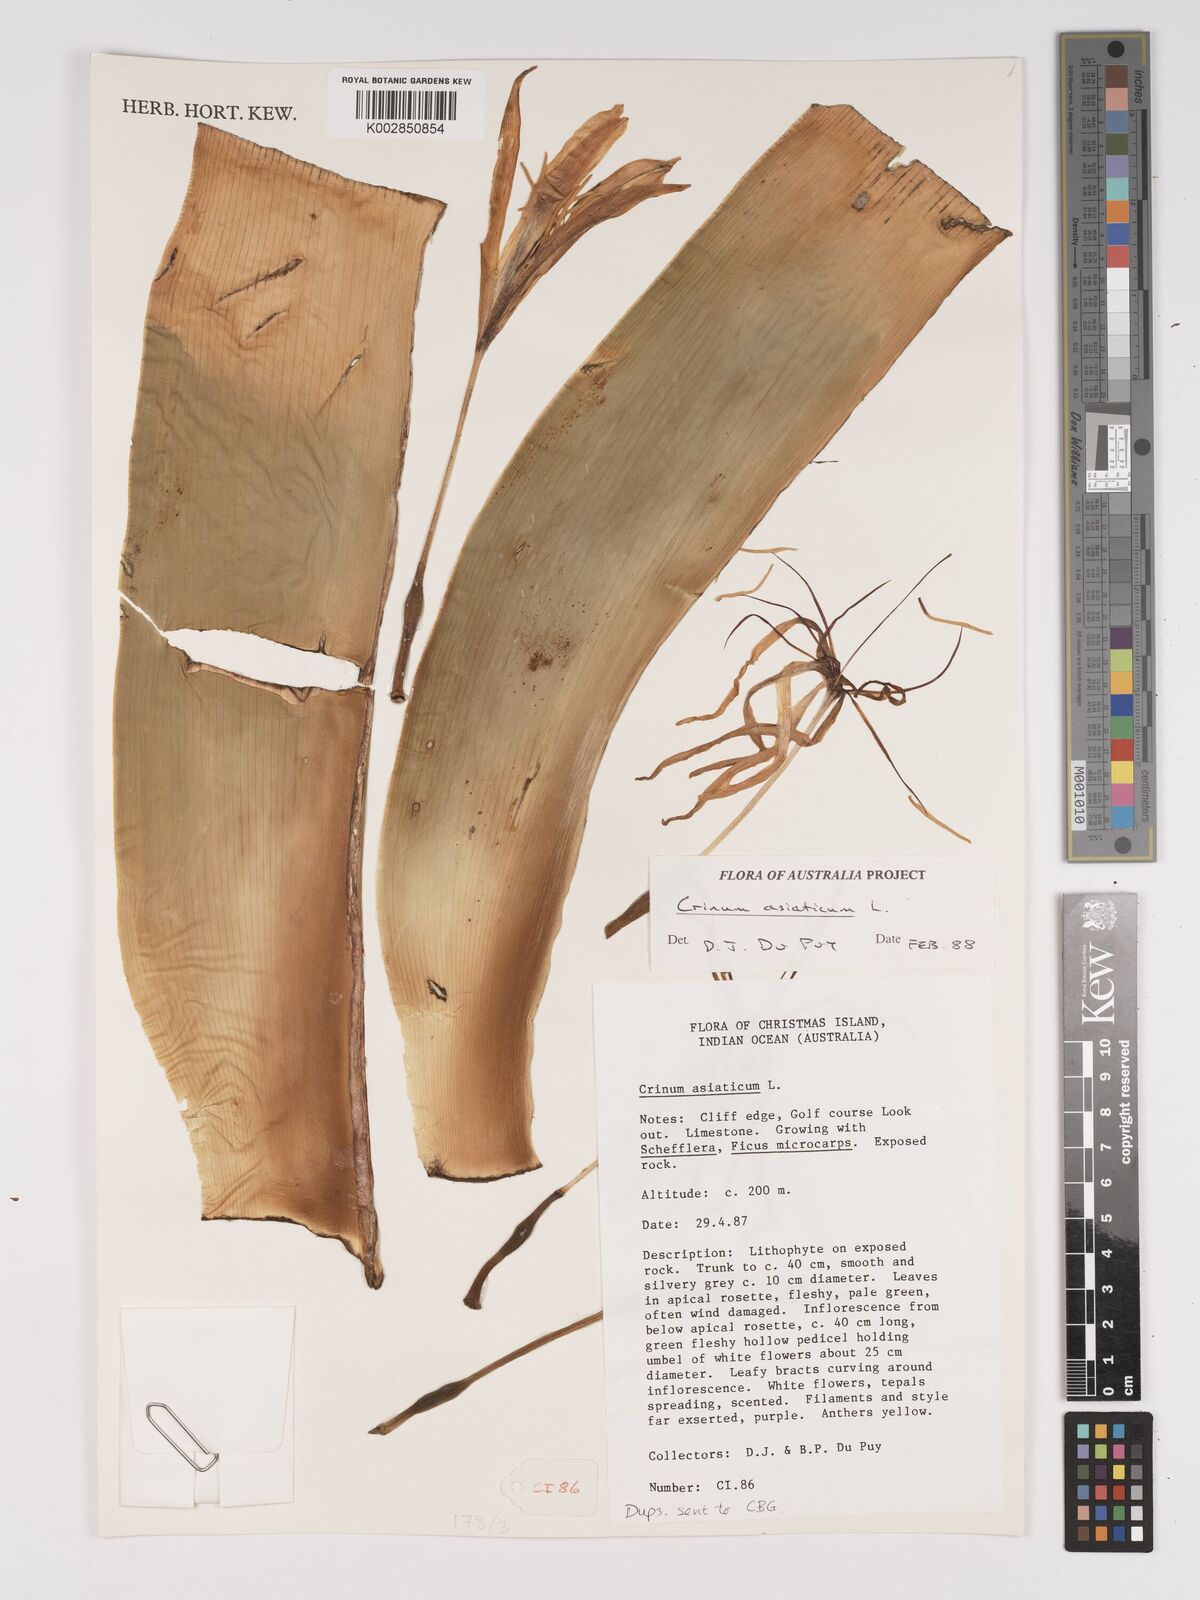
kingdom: Plantae
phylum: Tracheophyta
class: Liliopsida
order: Asparagales
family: Amaryllidaceae
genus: Crinum
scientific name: Crinum asiaticum
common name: Poisonbulb
